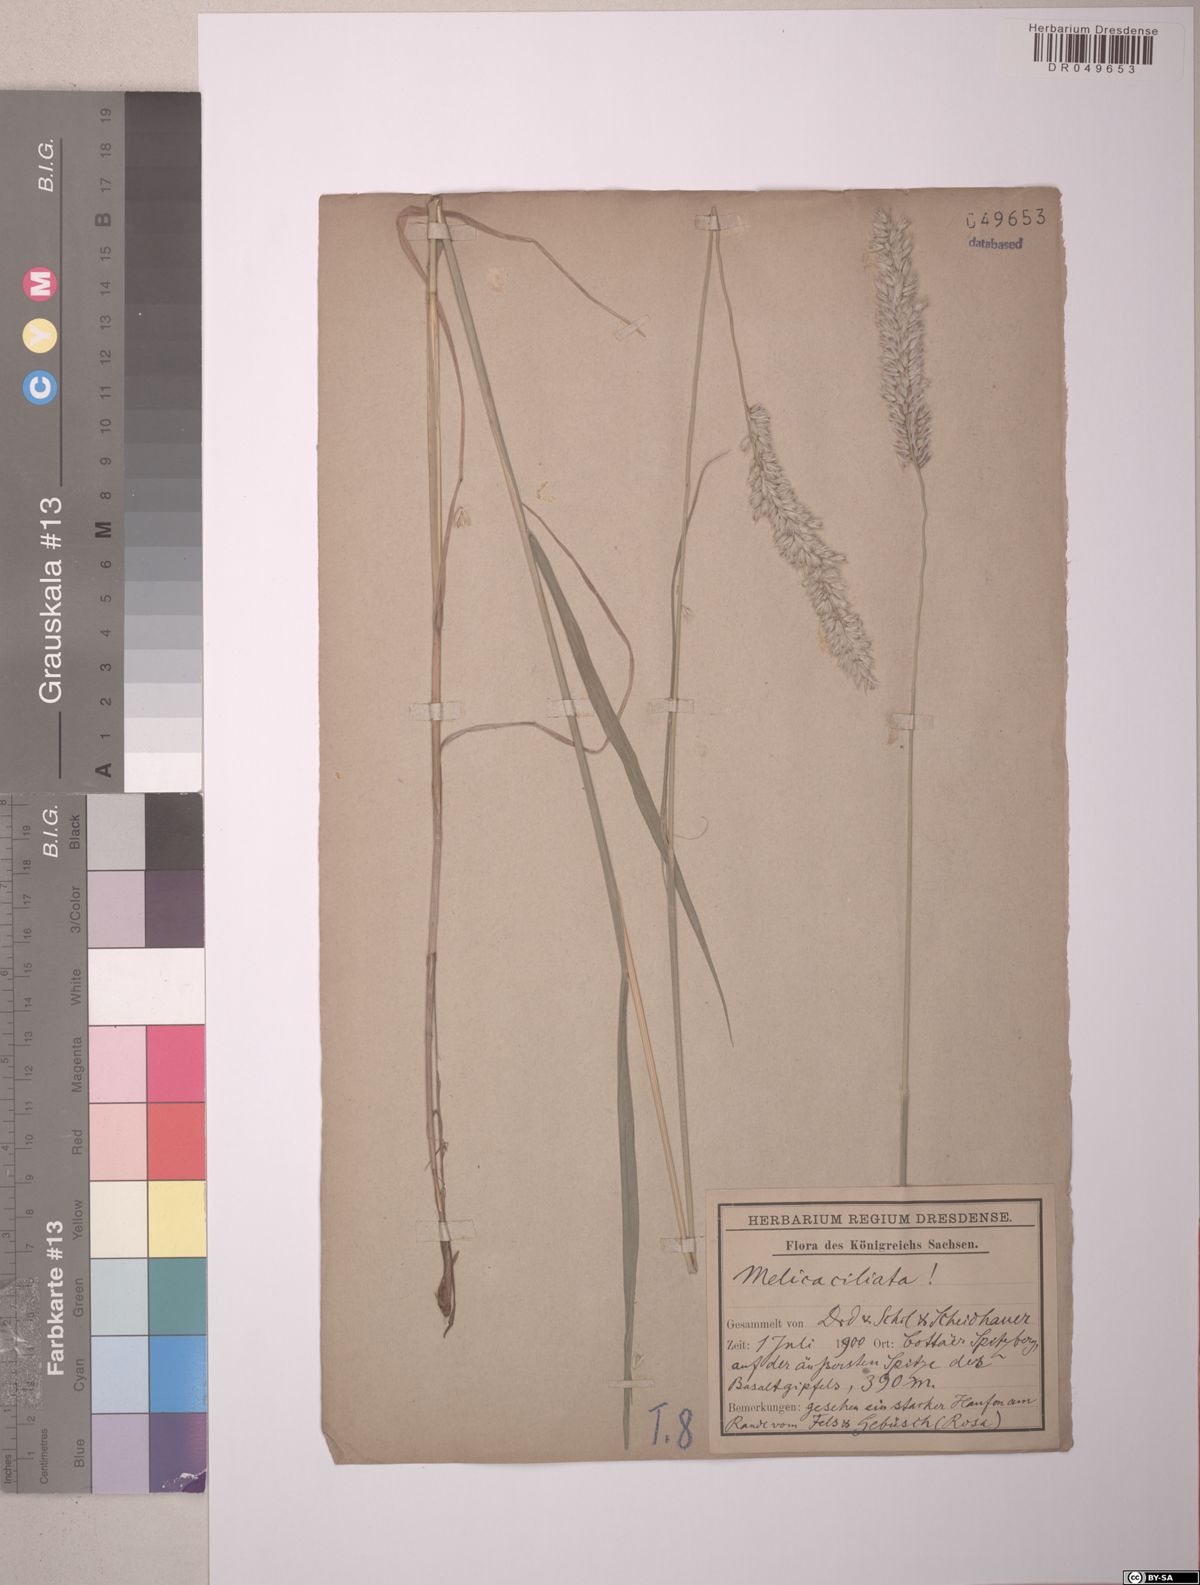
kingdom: Plantae
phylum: Tracheophyta
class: Liliopsida
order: Poales
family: Poaceae
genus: Melica
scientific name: Melica transsilvanica
